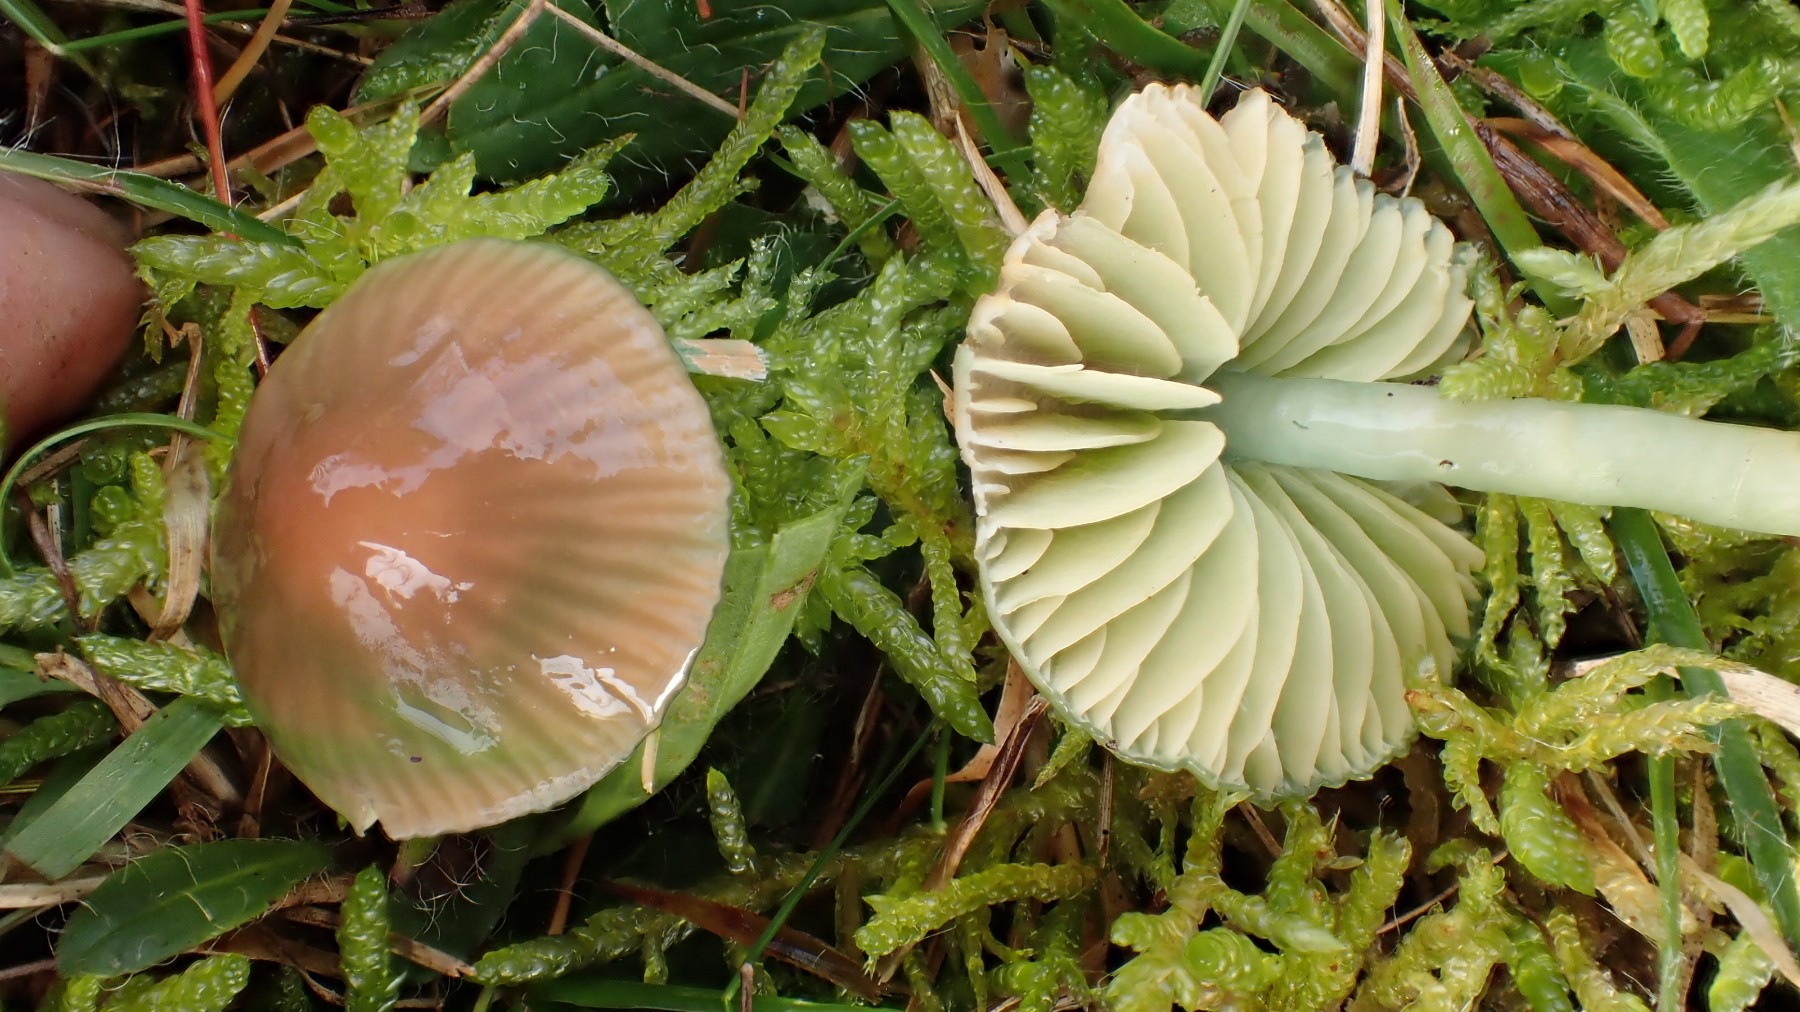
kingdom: Fungi
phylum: Basidiomycota
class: Agaricomycetes
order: Agaricales
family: Hygrophoraceae
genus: Gliophorus
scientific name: Gliophorus psittacinus
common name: papegøje-vokshat
